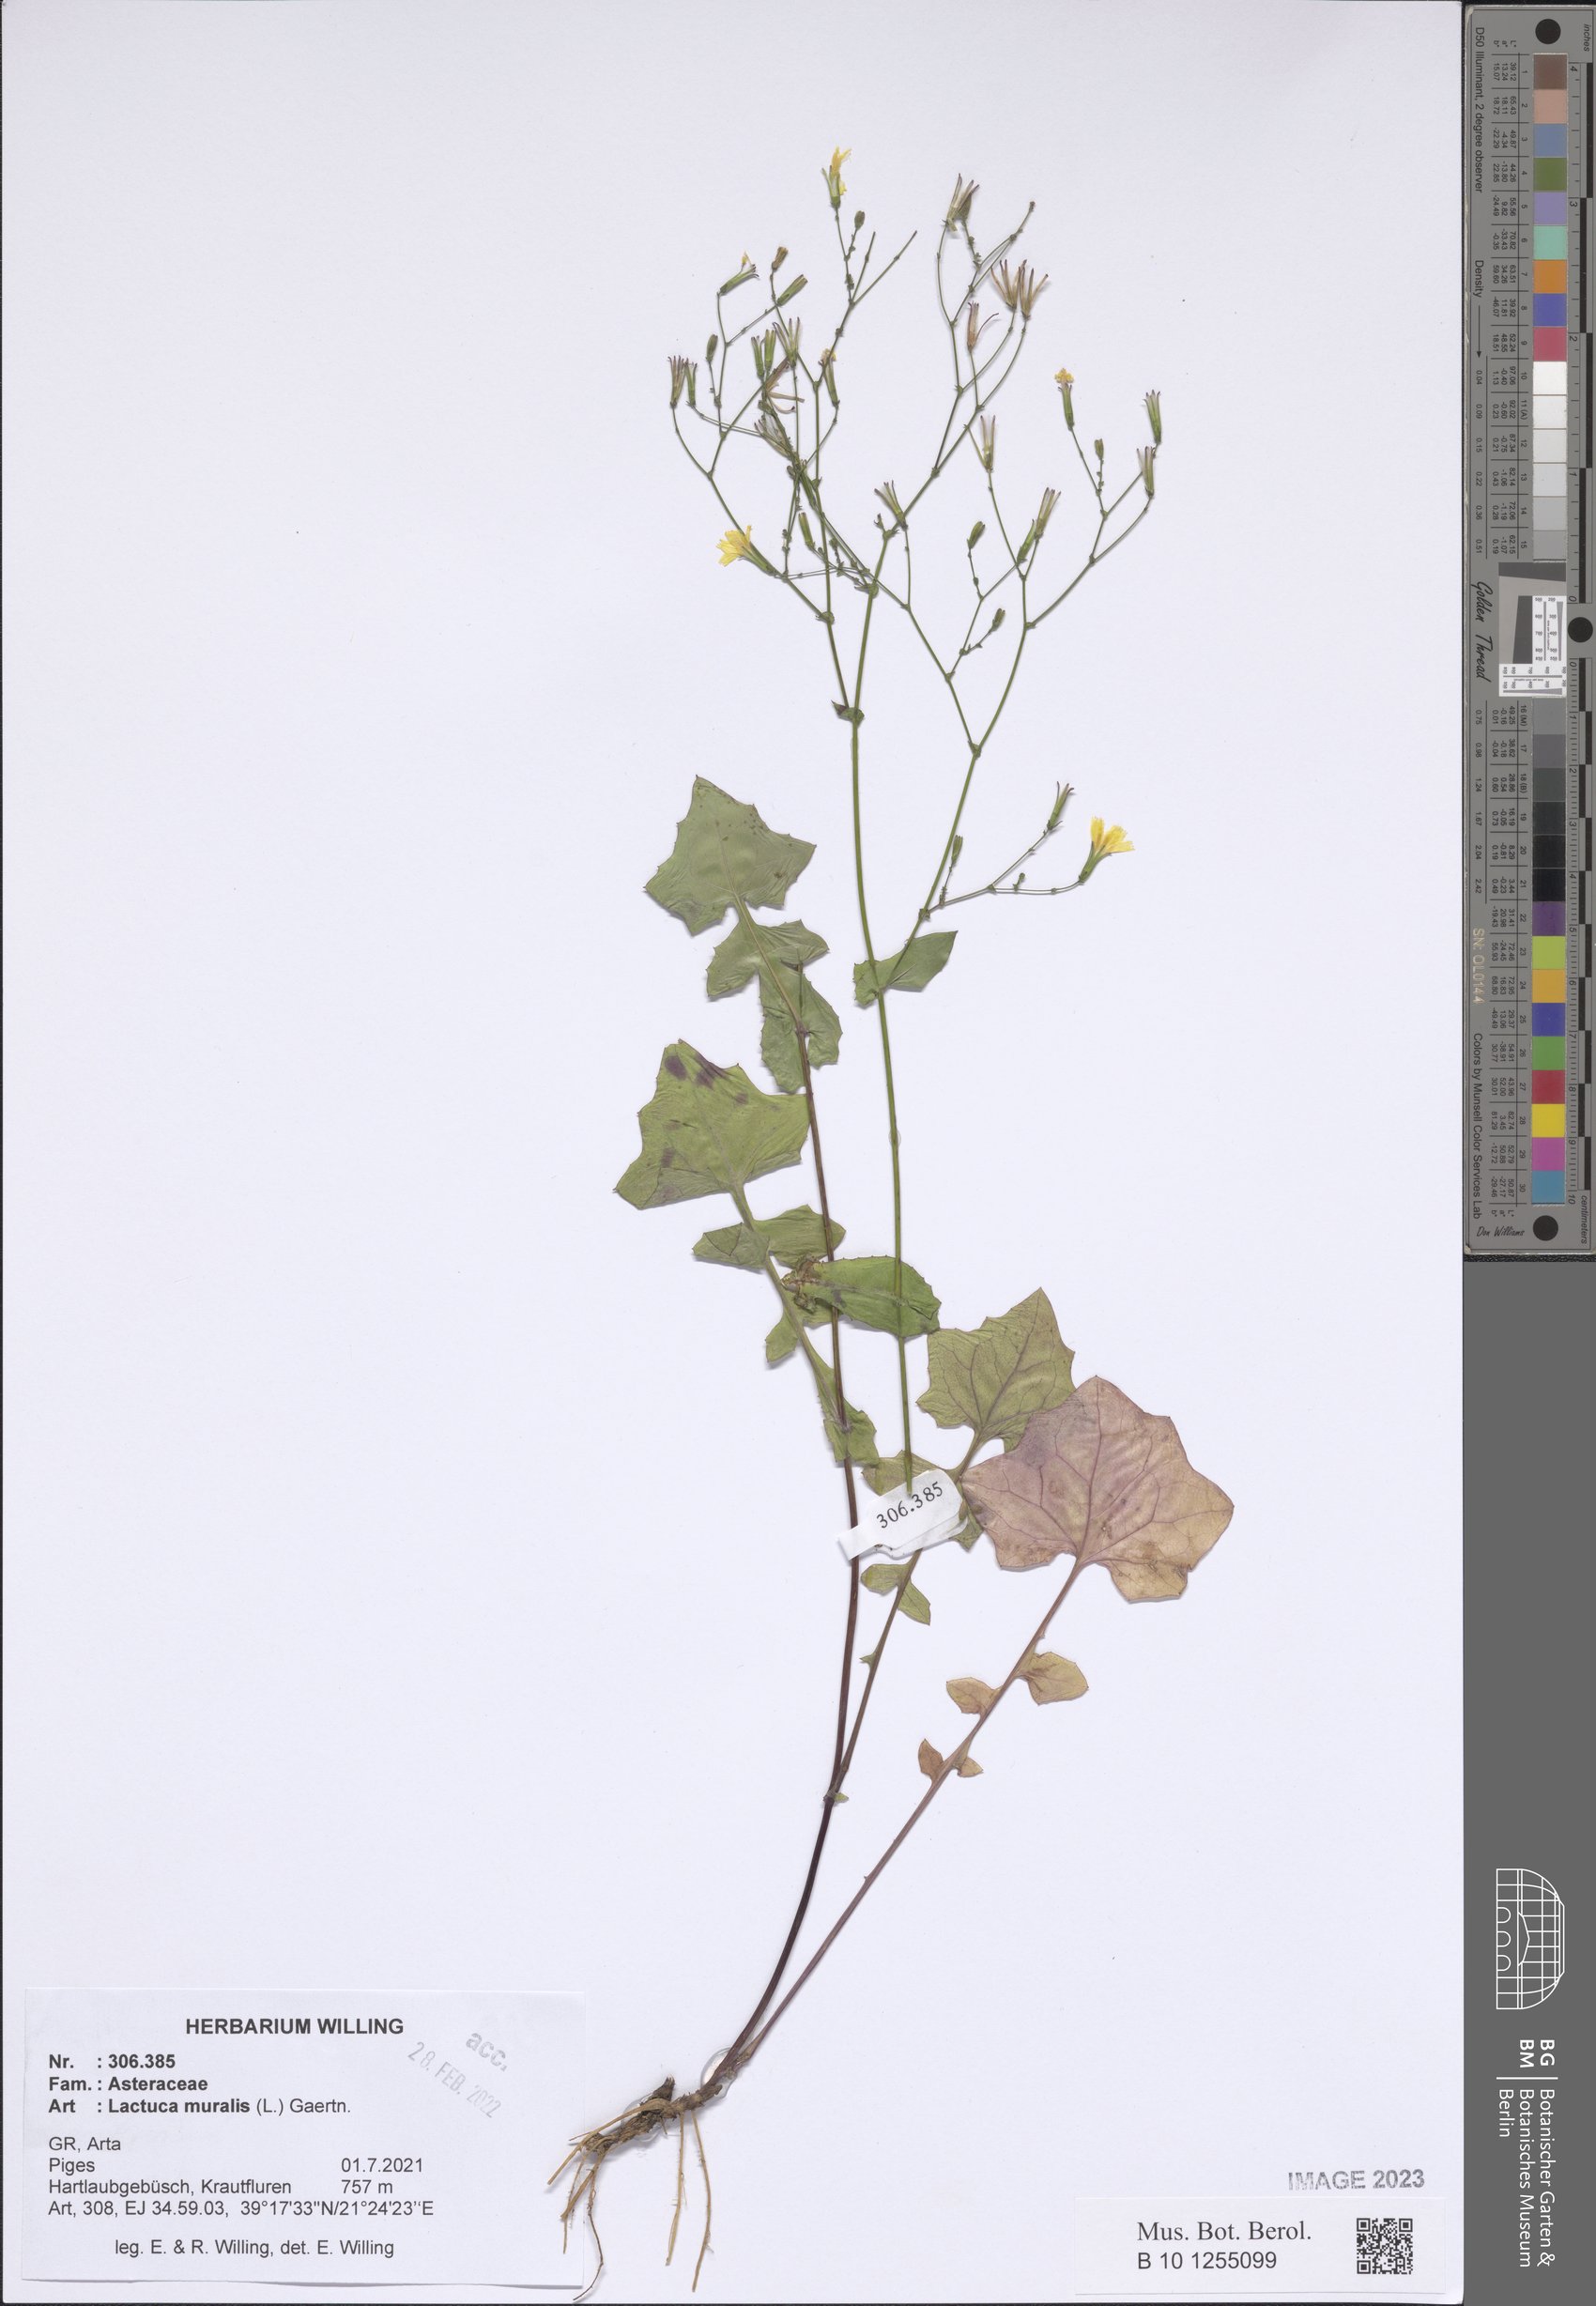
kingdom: Plantae
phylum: Tracheophyta
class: Magnoliopsida
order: Asterales
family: Asteraceae
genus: Mycelis
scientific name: Mycelis muralis
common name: Wall lettuce
